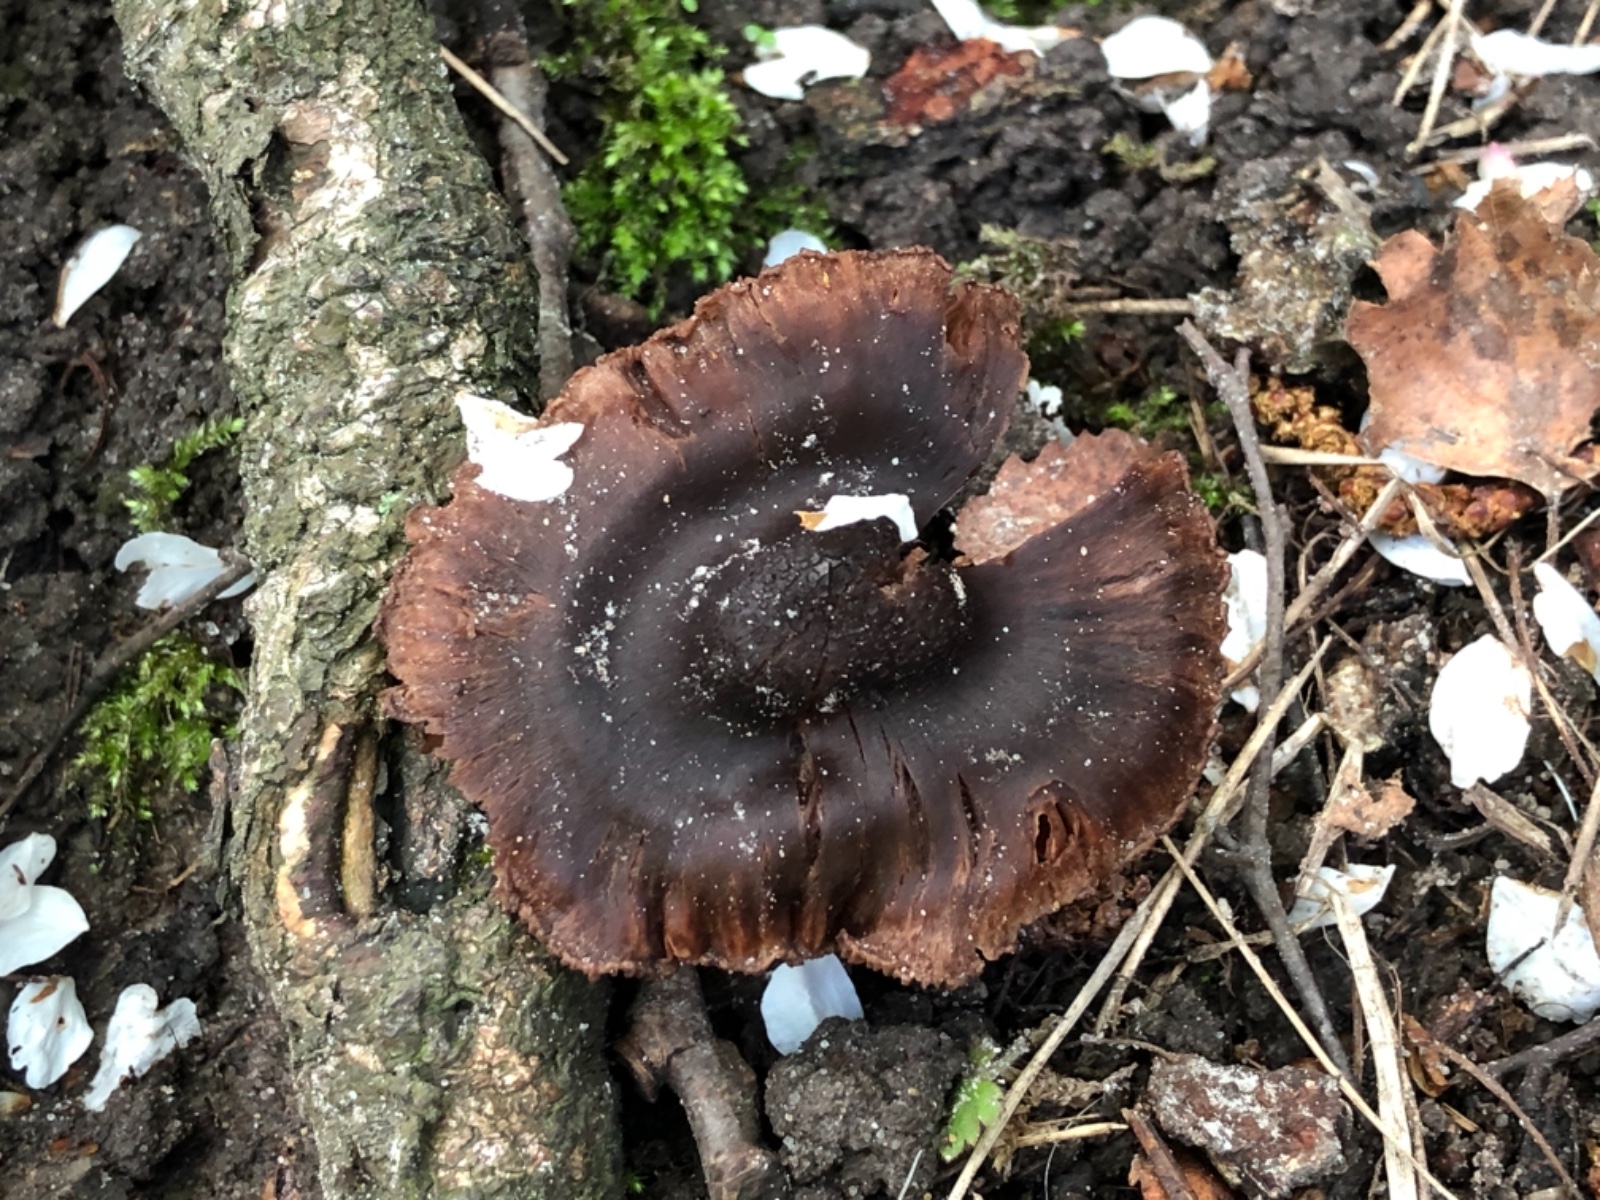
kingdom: Fungi
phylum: Basidiomycota
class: Agaricomycetes
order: Agaricales
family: Cortinariaceae
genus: Cortinarius
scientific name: Cortinarius
